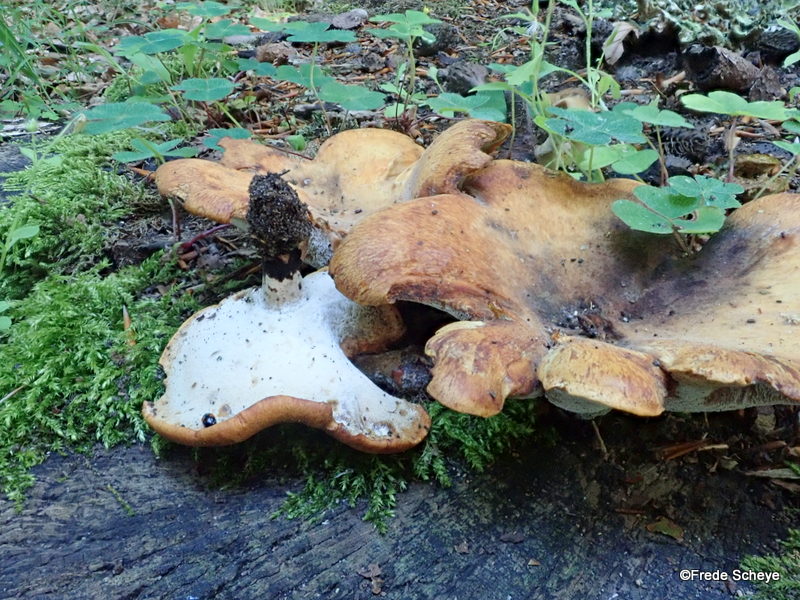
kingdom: Fungi
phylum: Basidiomycota
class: Agaricomycetes
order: Polyporales
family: Polyporaceae
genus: Cerioporus
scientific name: Cerioporus varius
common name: foranderlig stilkporesvamp
